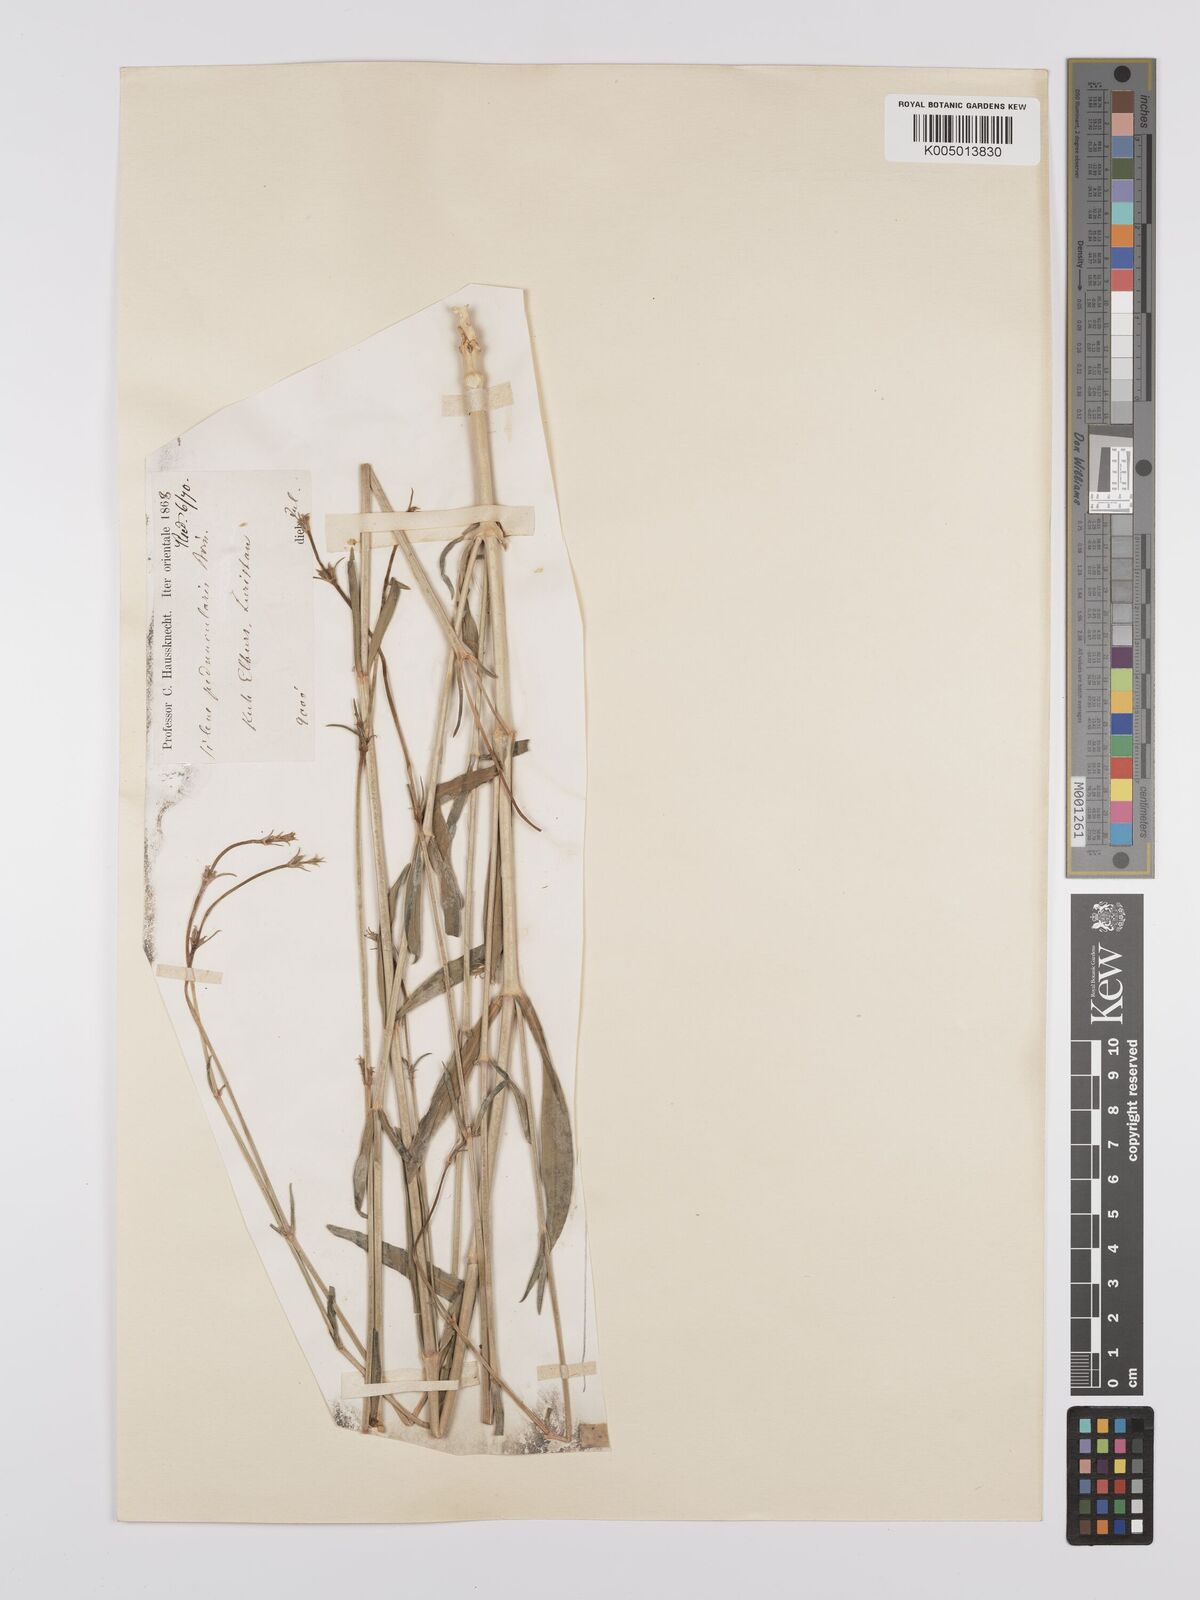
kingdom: Plantae
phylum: Tracheophyta
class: Magnoliopsida
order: Caryophyllales
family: Caryophyllaceae
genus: Silene
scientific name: Silene peduncularis
